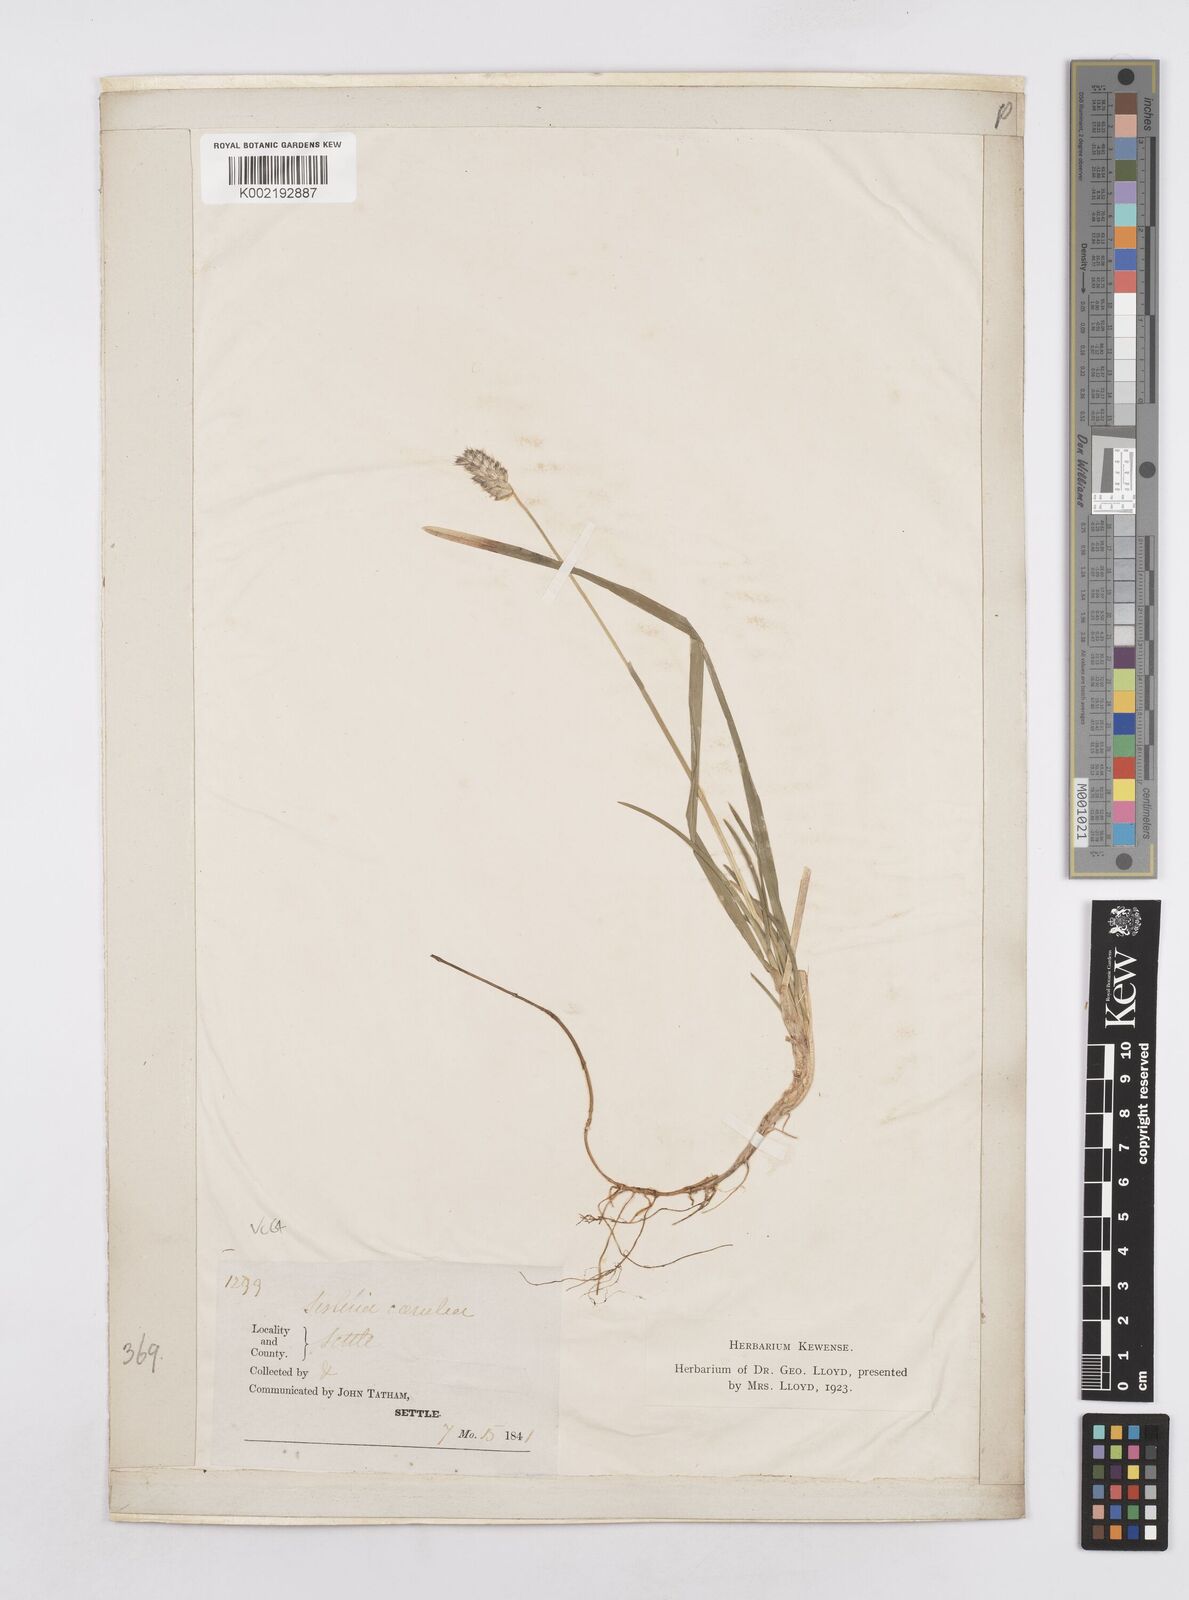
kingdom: Plantae
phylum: Tracheophyta
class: Liliopsida
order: Poales
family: Poaceae
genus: Sesleria
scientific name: Sesleria caerulea
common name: Blue moor-grass
